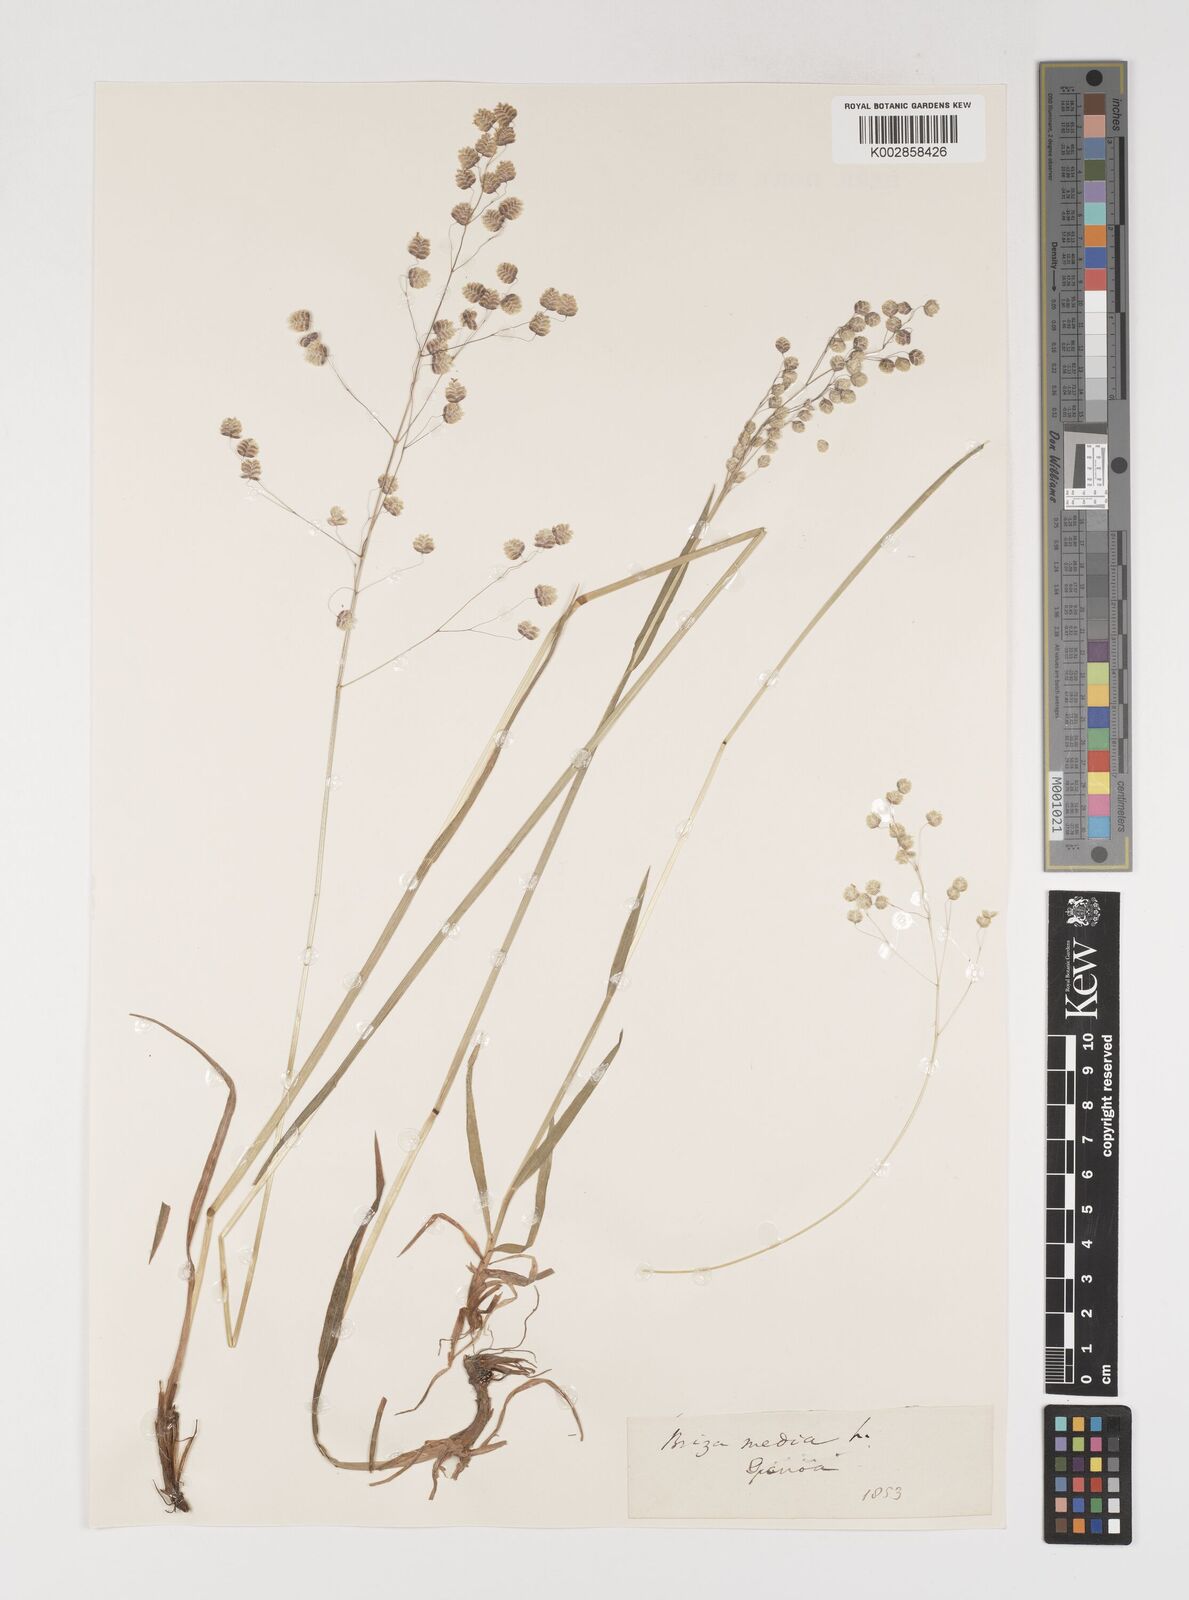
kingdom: Plantae
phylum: Tracheophyta
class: Liliopsida
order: Poales
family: Poaceae
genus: Briza
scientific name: Briza media
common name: Quaking grass
